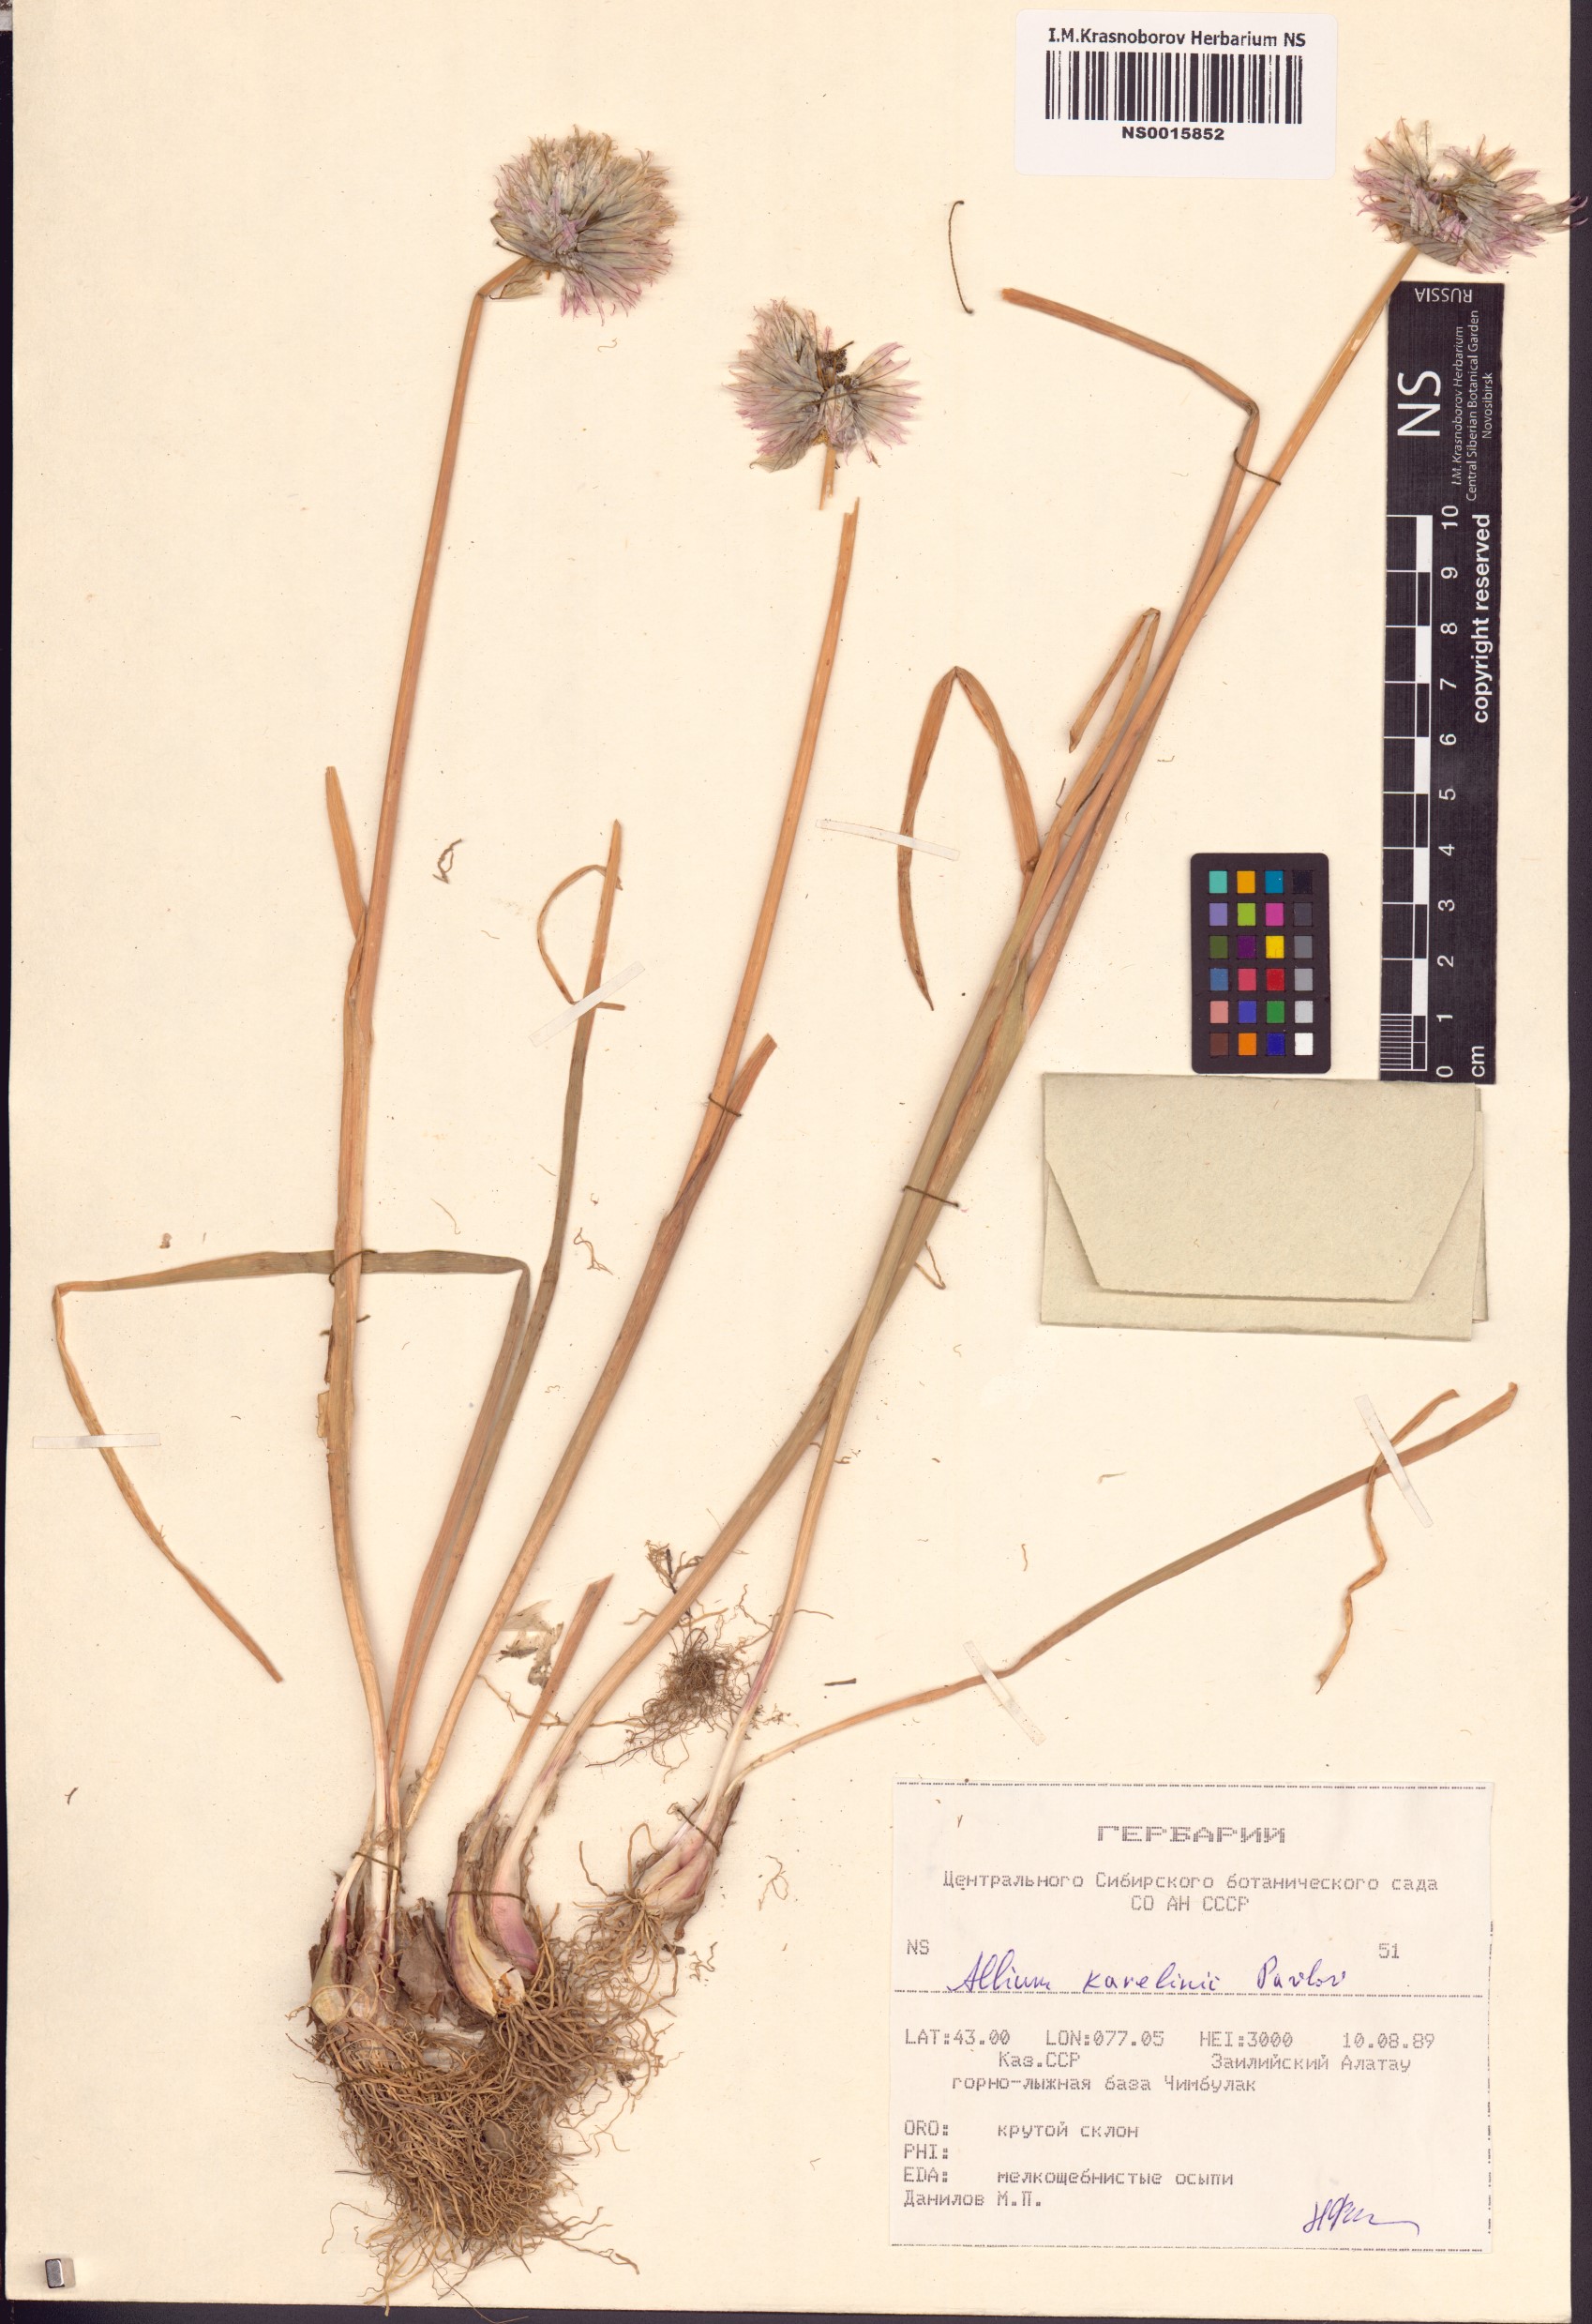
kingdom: Plantae
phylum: Tracheophyta
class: Liliopsida
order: Asparagales
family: Amaryllidaceae
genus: Allium
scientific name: Allium karelinii
